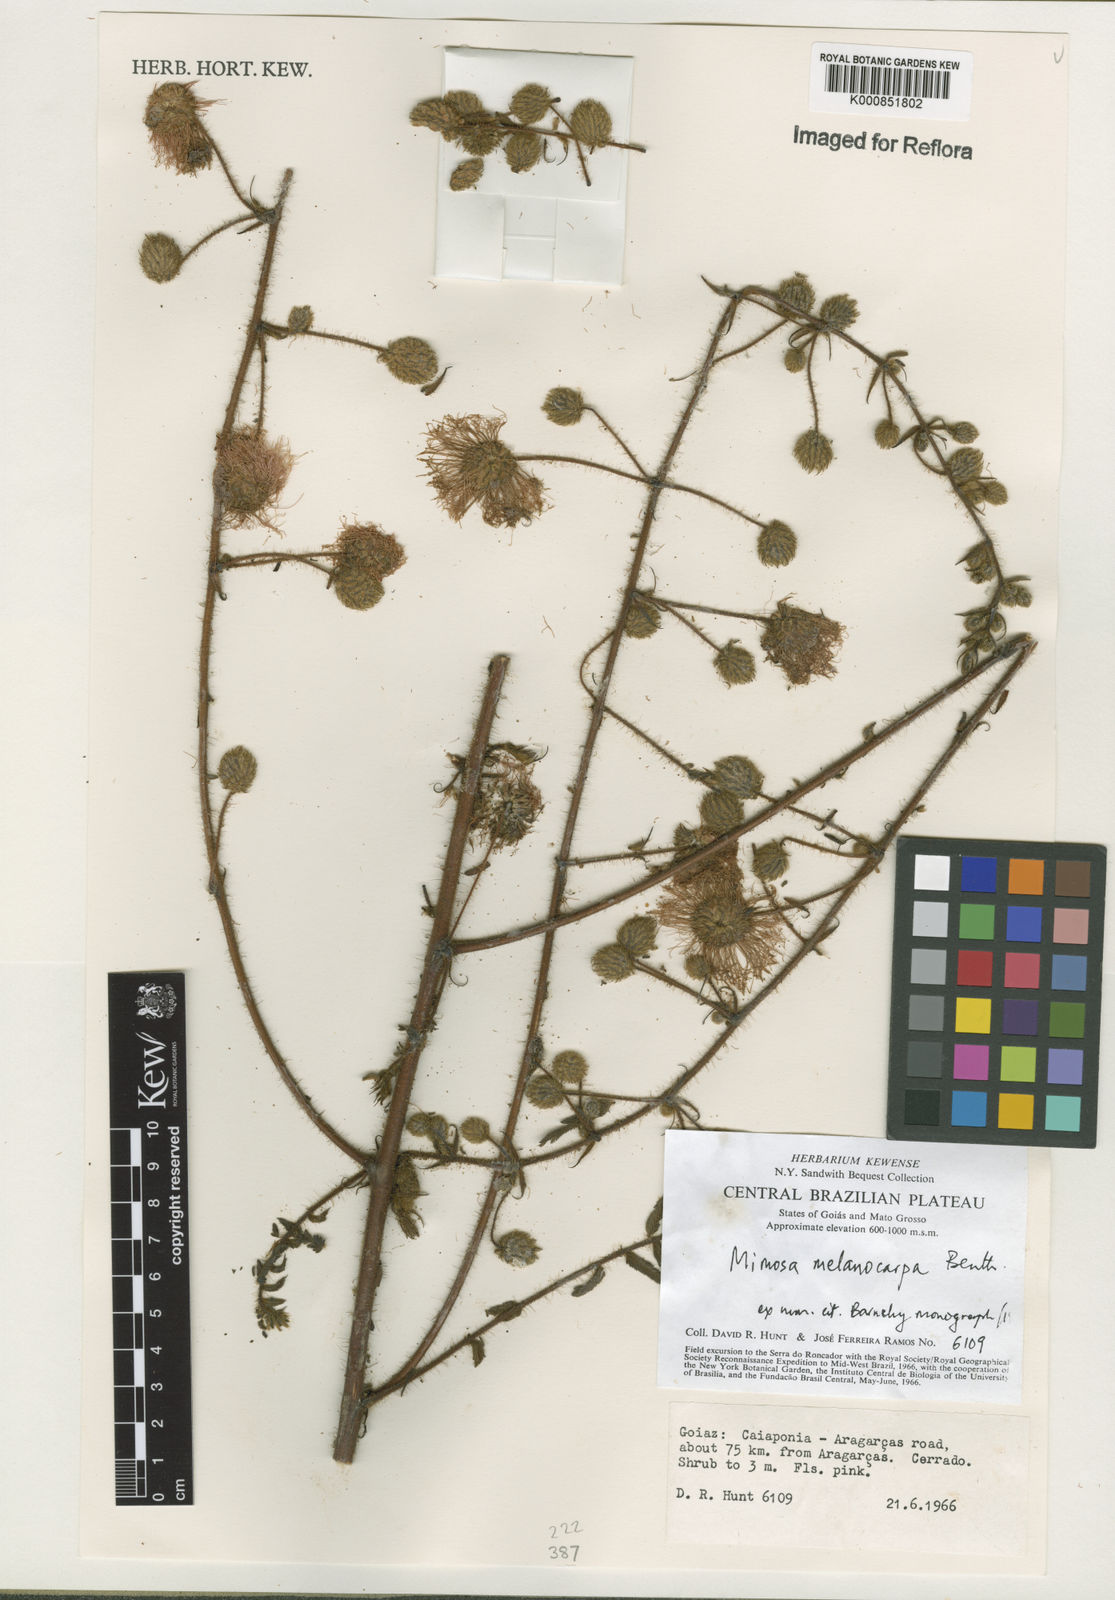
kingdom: Plantae
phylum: Tracheophyta
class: Magnoliopsida
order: Fabales
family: Fabaceae
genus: Mimosa
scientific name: Mimosa melanocarpa
